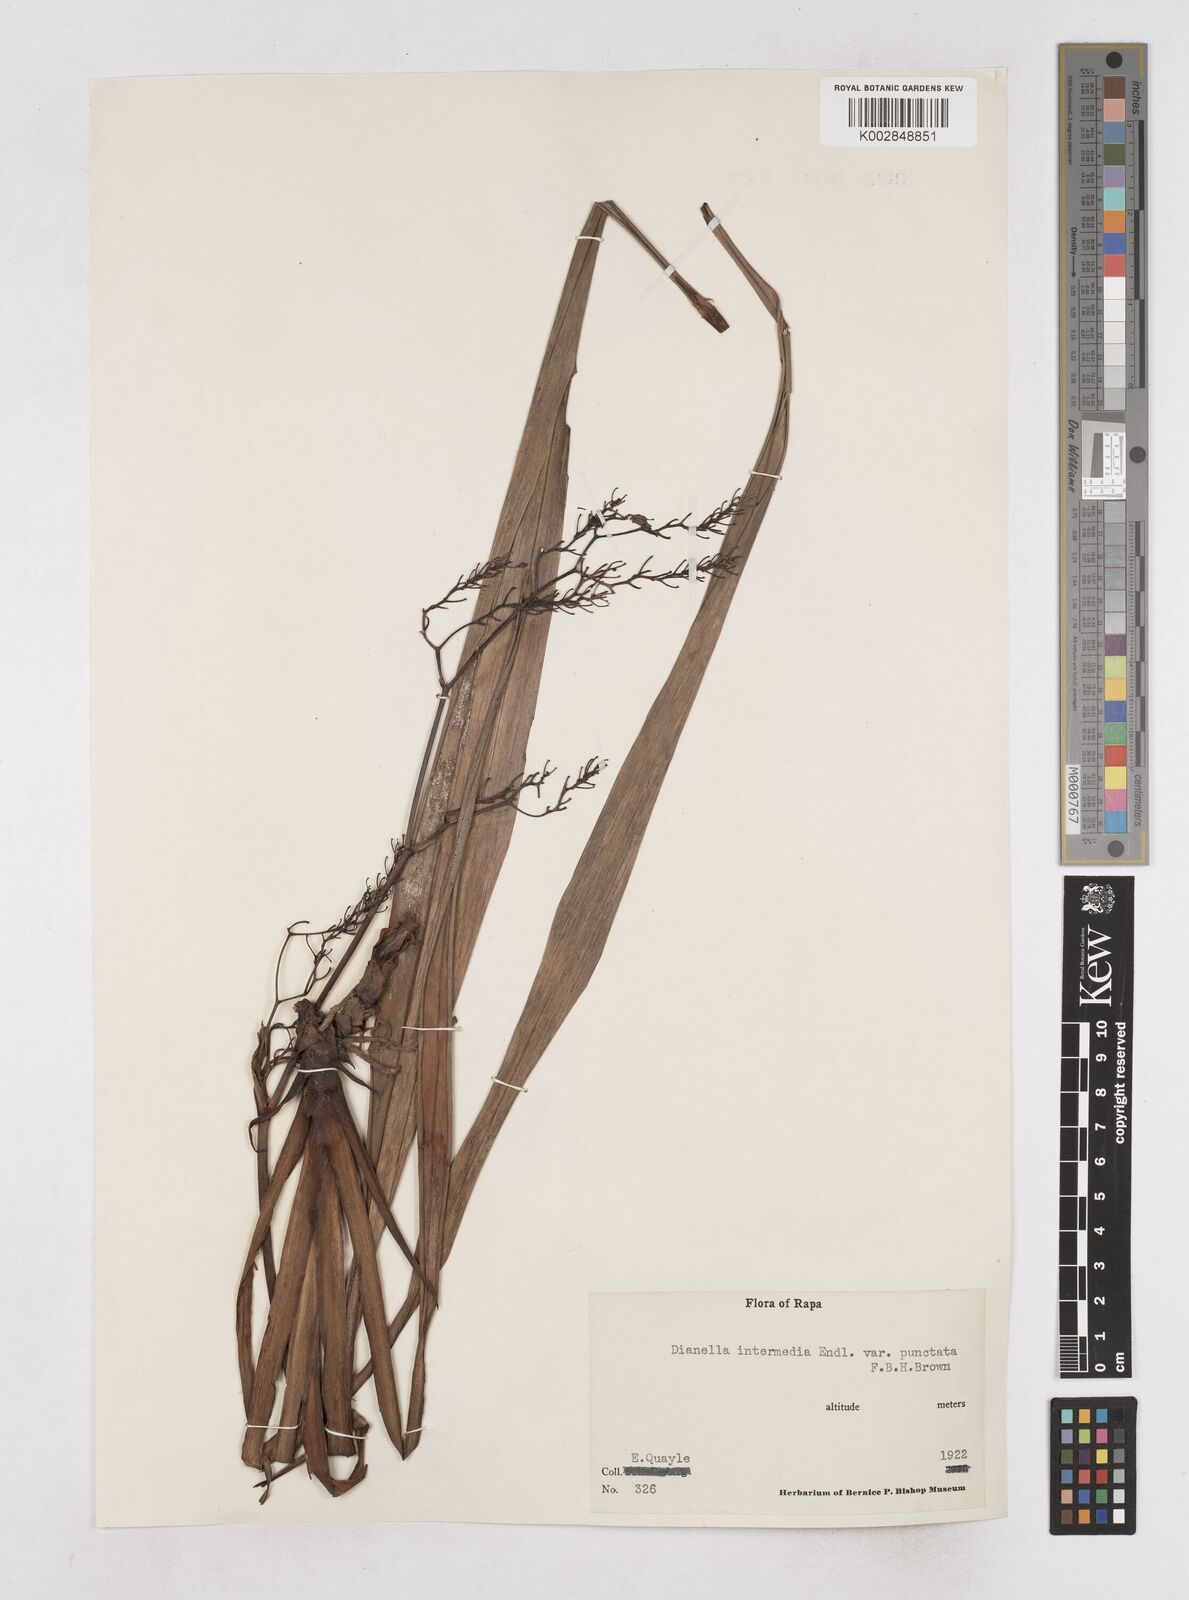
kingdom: Plantae
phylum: Tracheophyta
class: Liliopsida
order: Asparagales
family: Asphodelaceae
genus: Dianella
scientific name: Dianella intermedia
